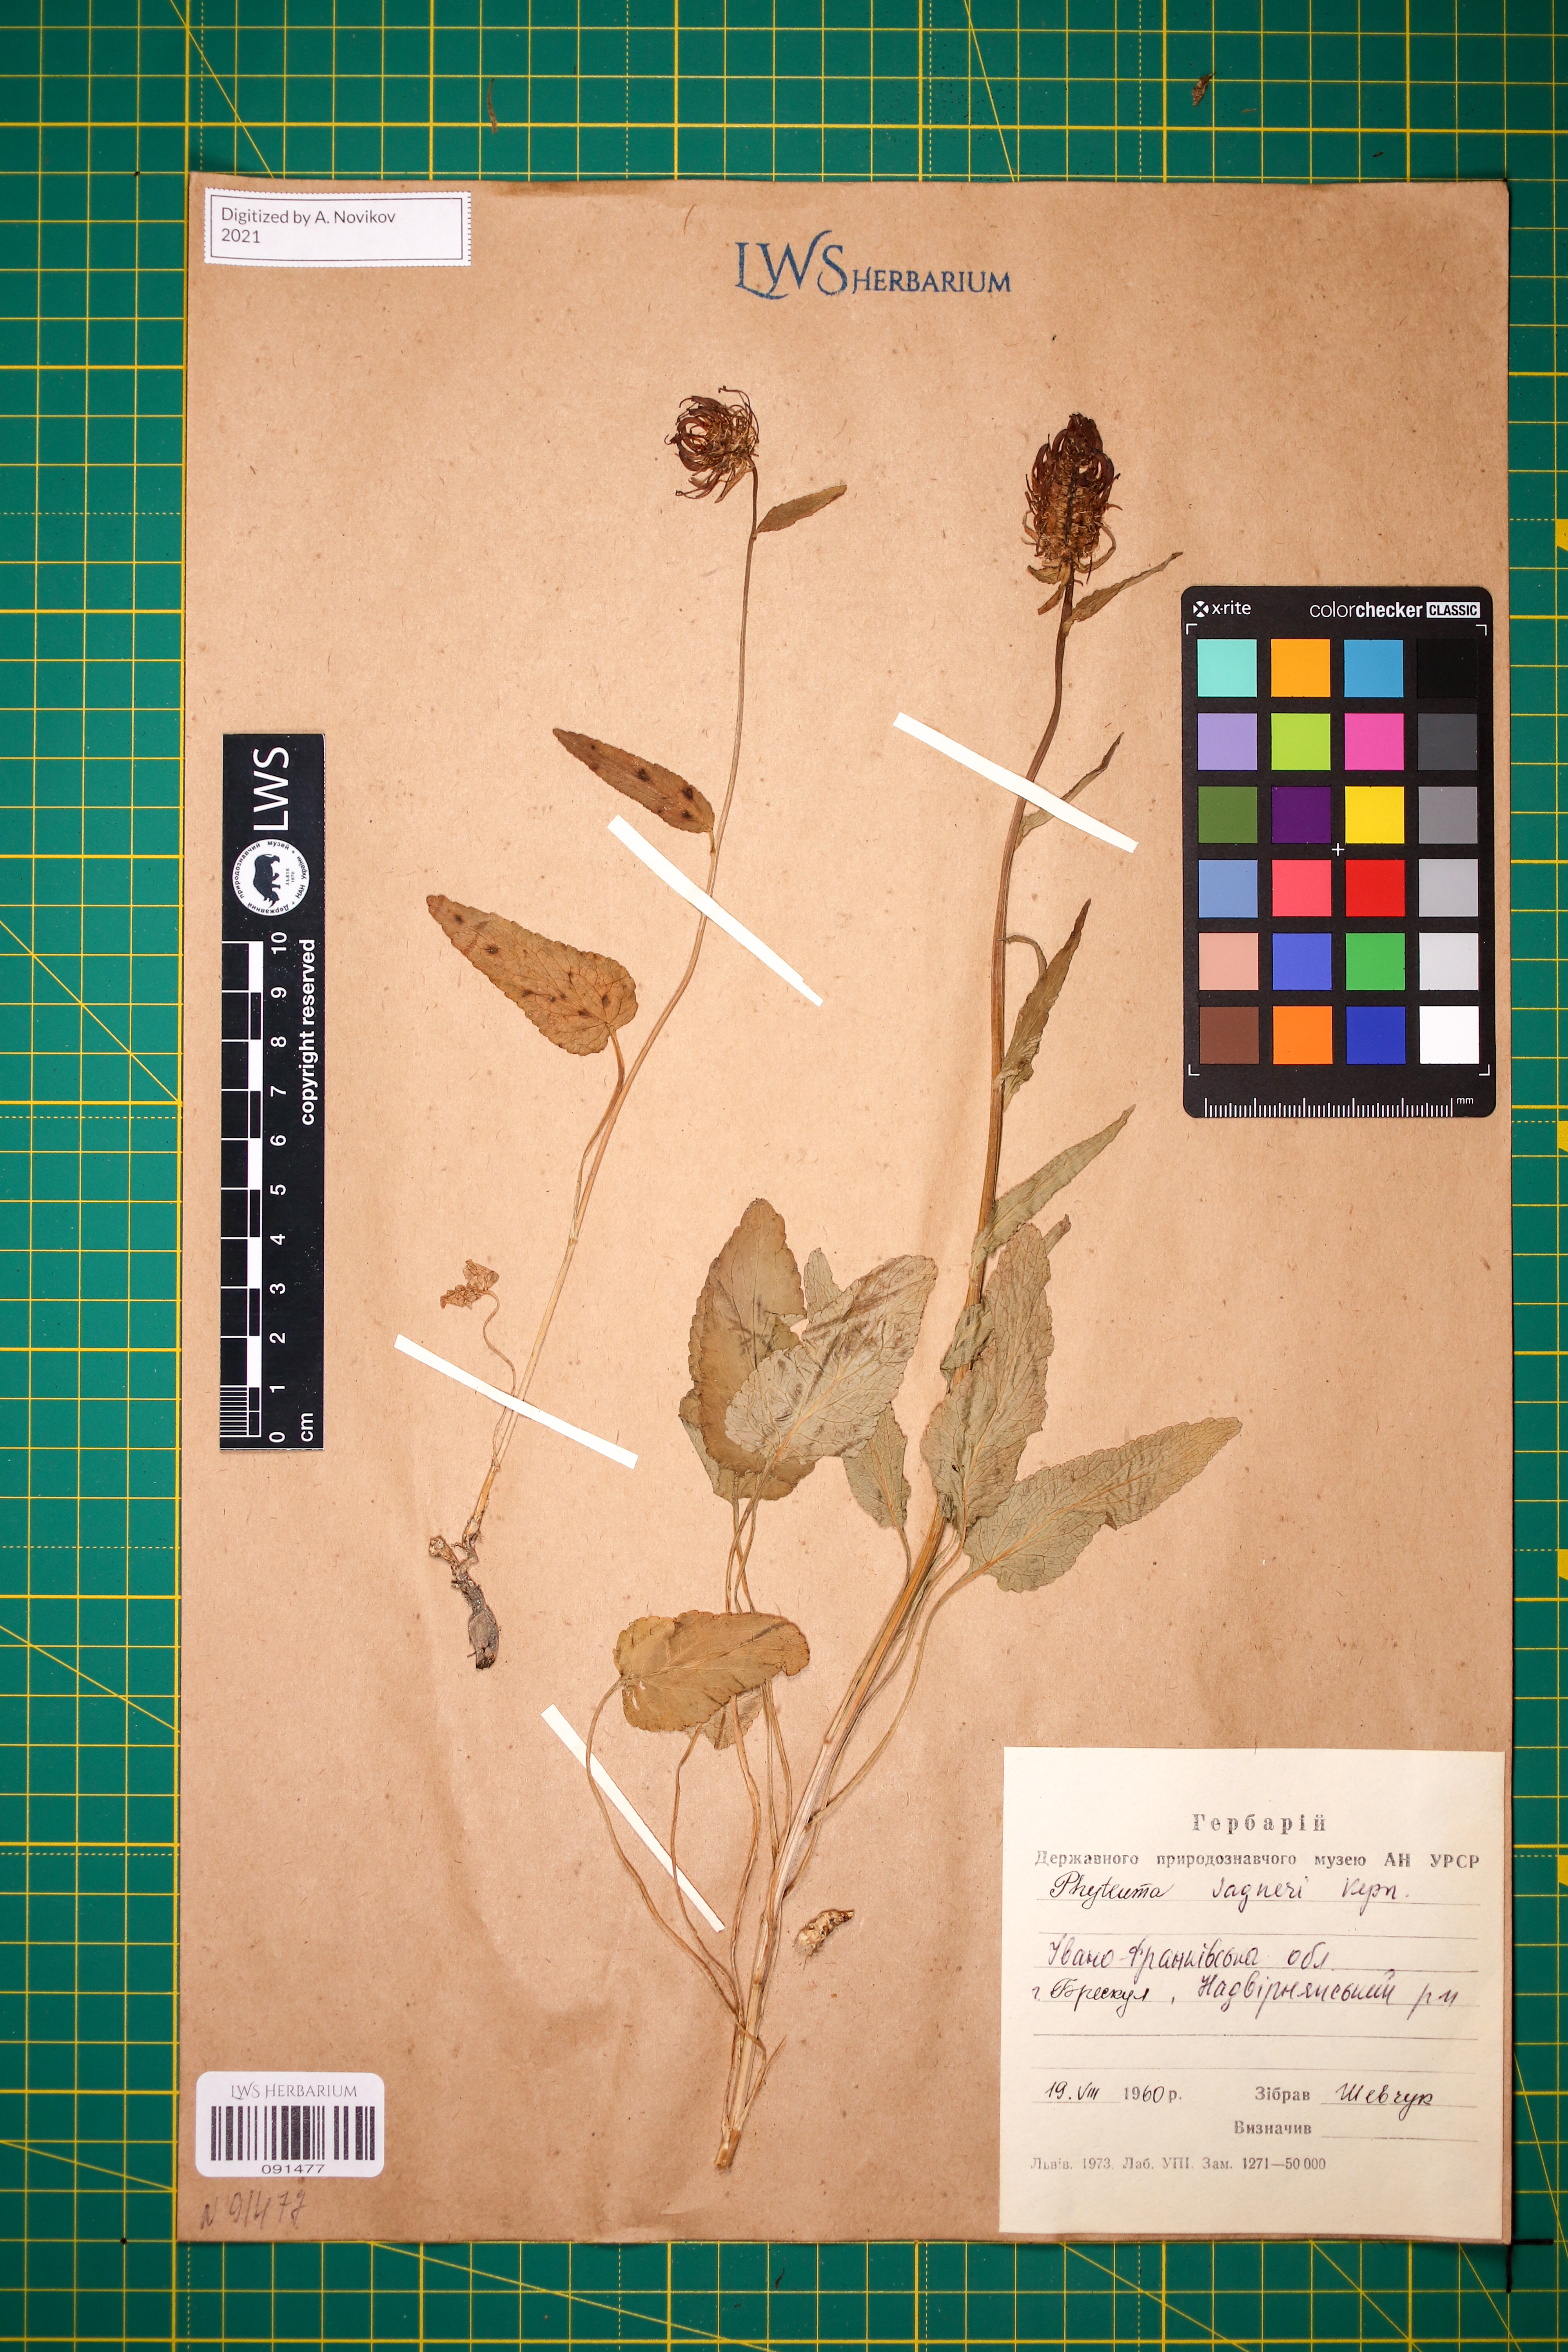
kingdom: Plantae
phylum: Tracheophyta
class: Magnoliopsida
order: Asterales
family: Campanulaceae
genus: Phyteuma
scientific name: Phyteuma vagneri
